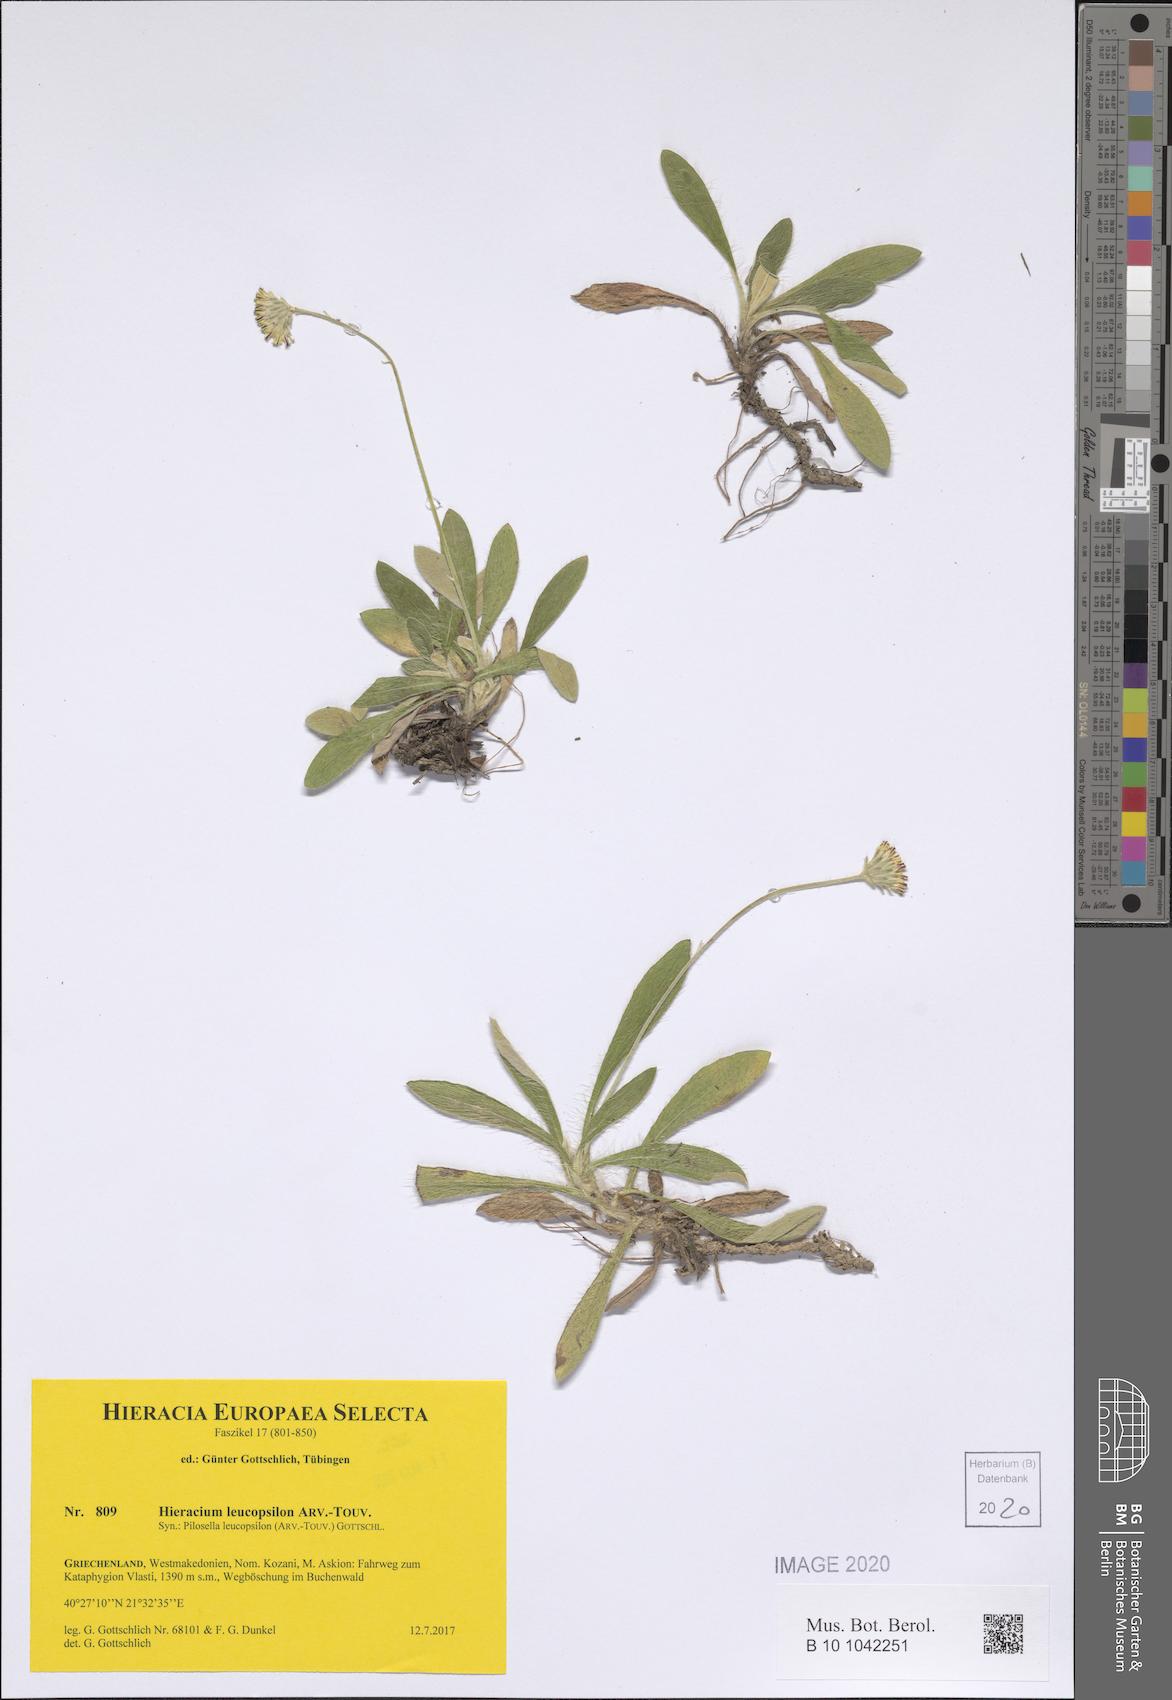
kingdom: Plantae
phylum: Tracheophyta
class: Magnoliopsida
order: Asterales
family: Asteraceae
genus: Pilosella
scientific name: Pilosella leucopsilon
